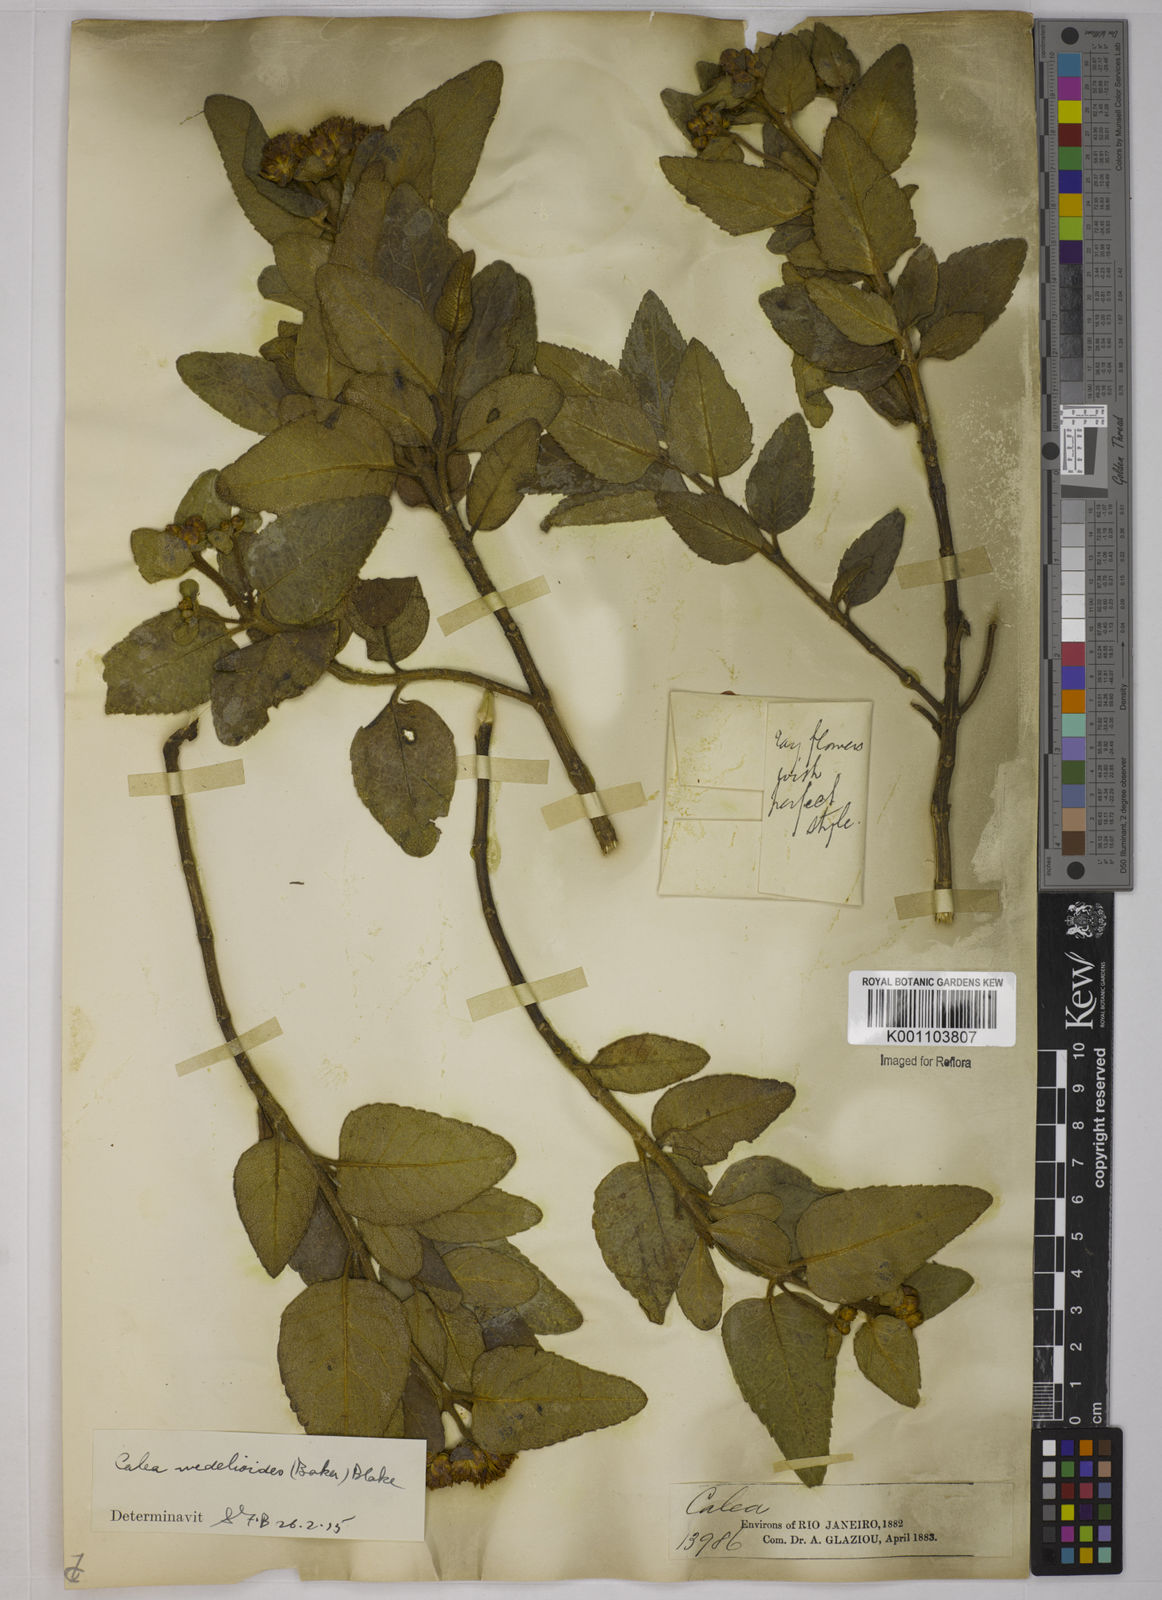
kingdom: Plantae
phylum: Tracheophyta
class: Magnoliopsida
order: Asterales
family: Asteraceae
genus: Calea
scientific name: Calea wedelioides
